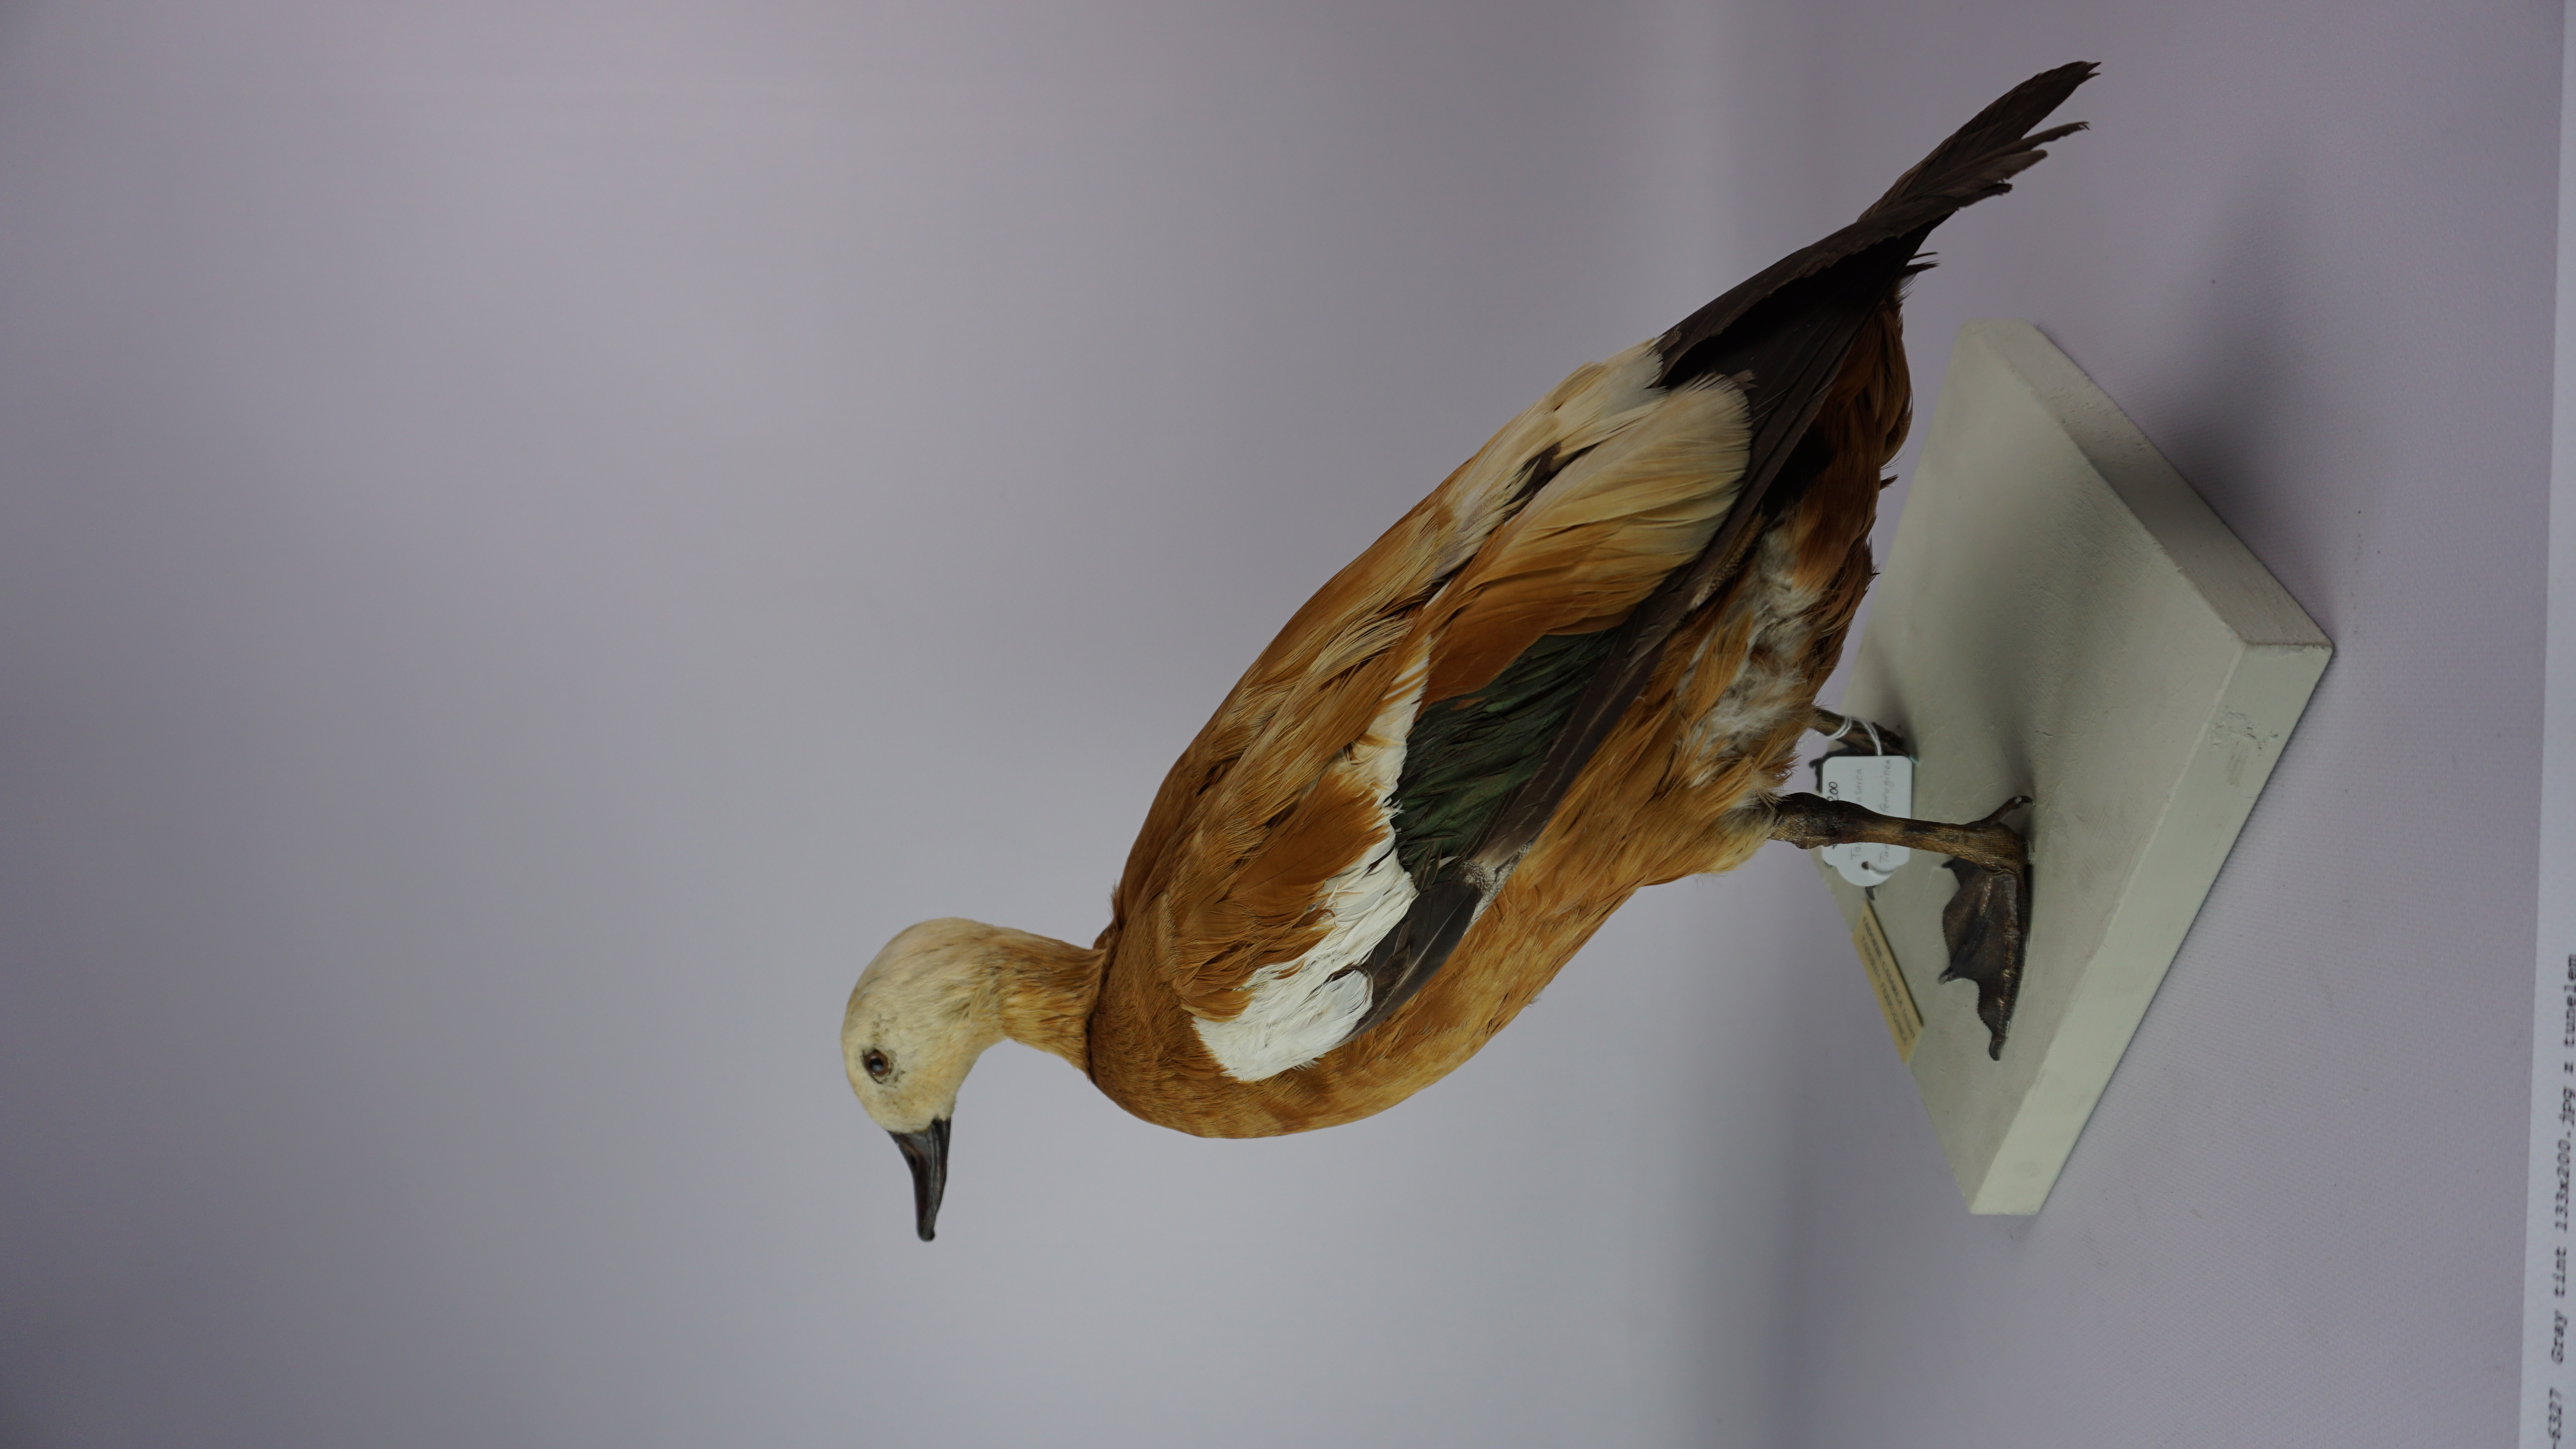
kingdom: Animalia
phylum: Chordata
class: Aves
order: Anseriformes
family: Anatidae
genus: Tadorna
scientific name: Tadorna tadorna
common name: Common shelduck
